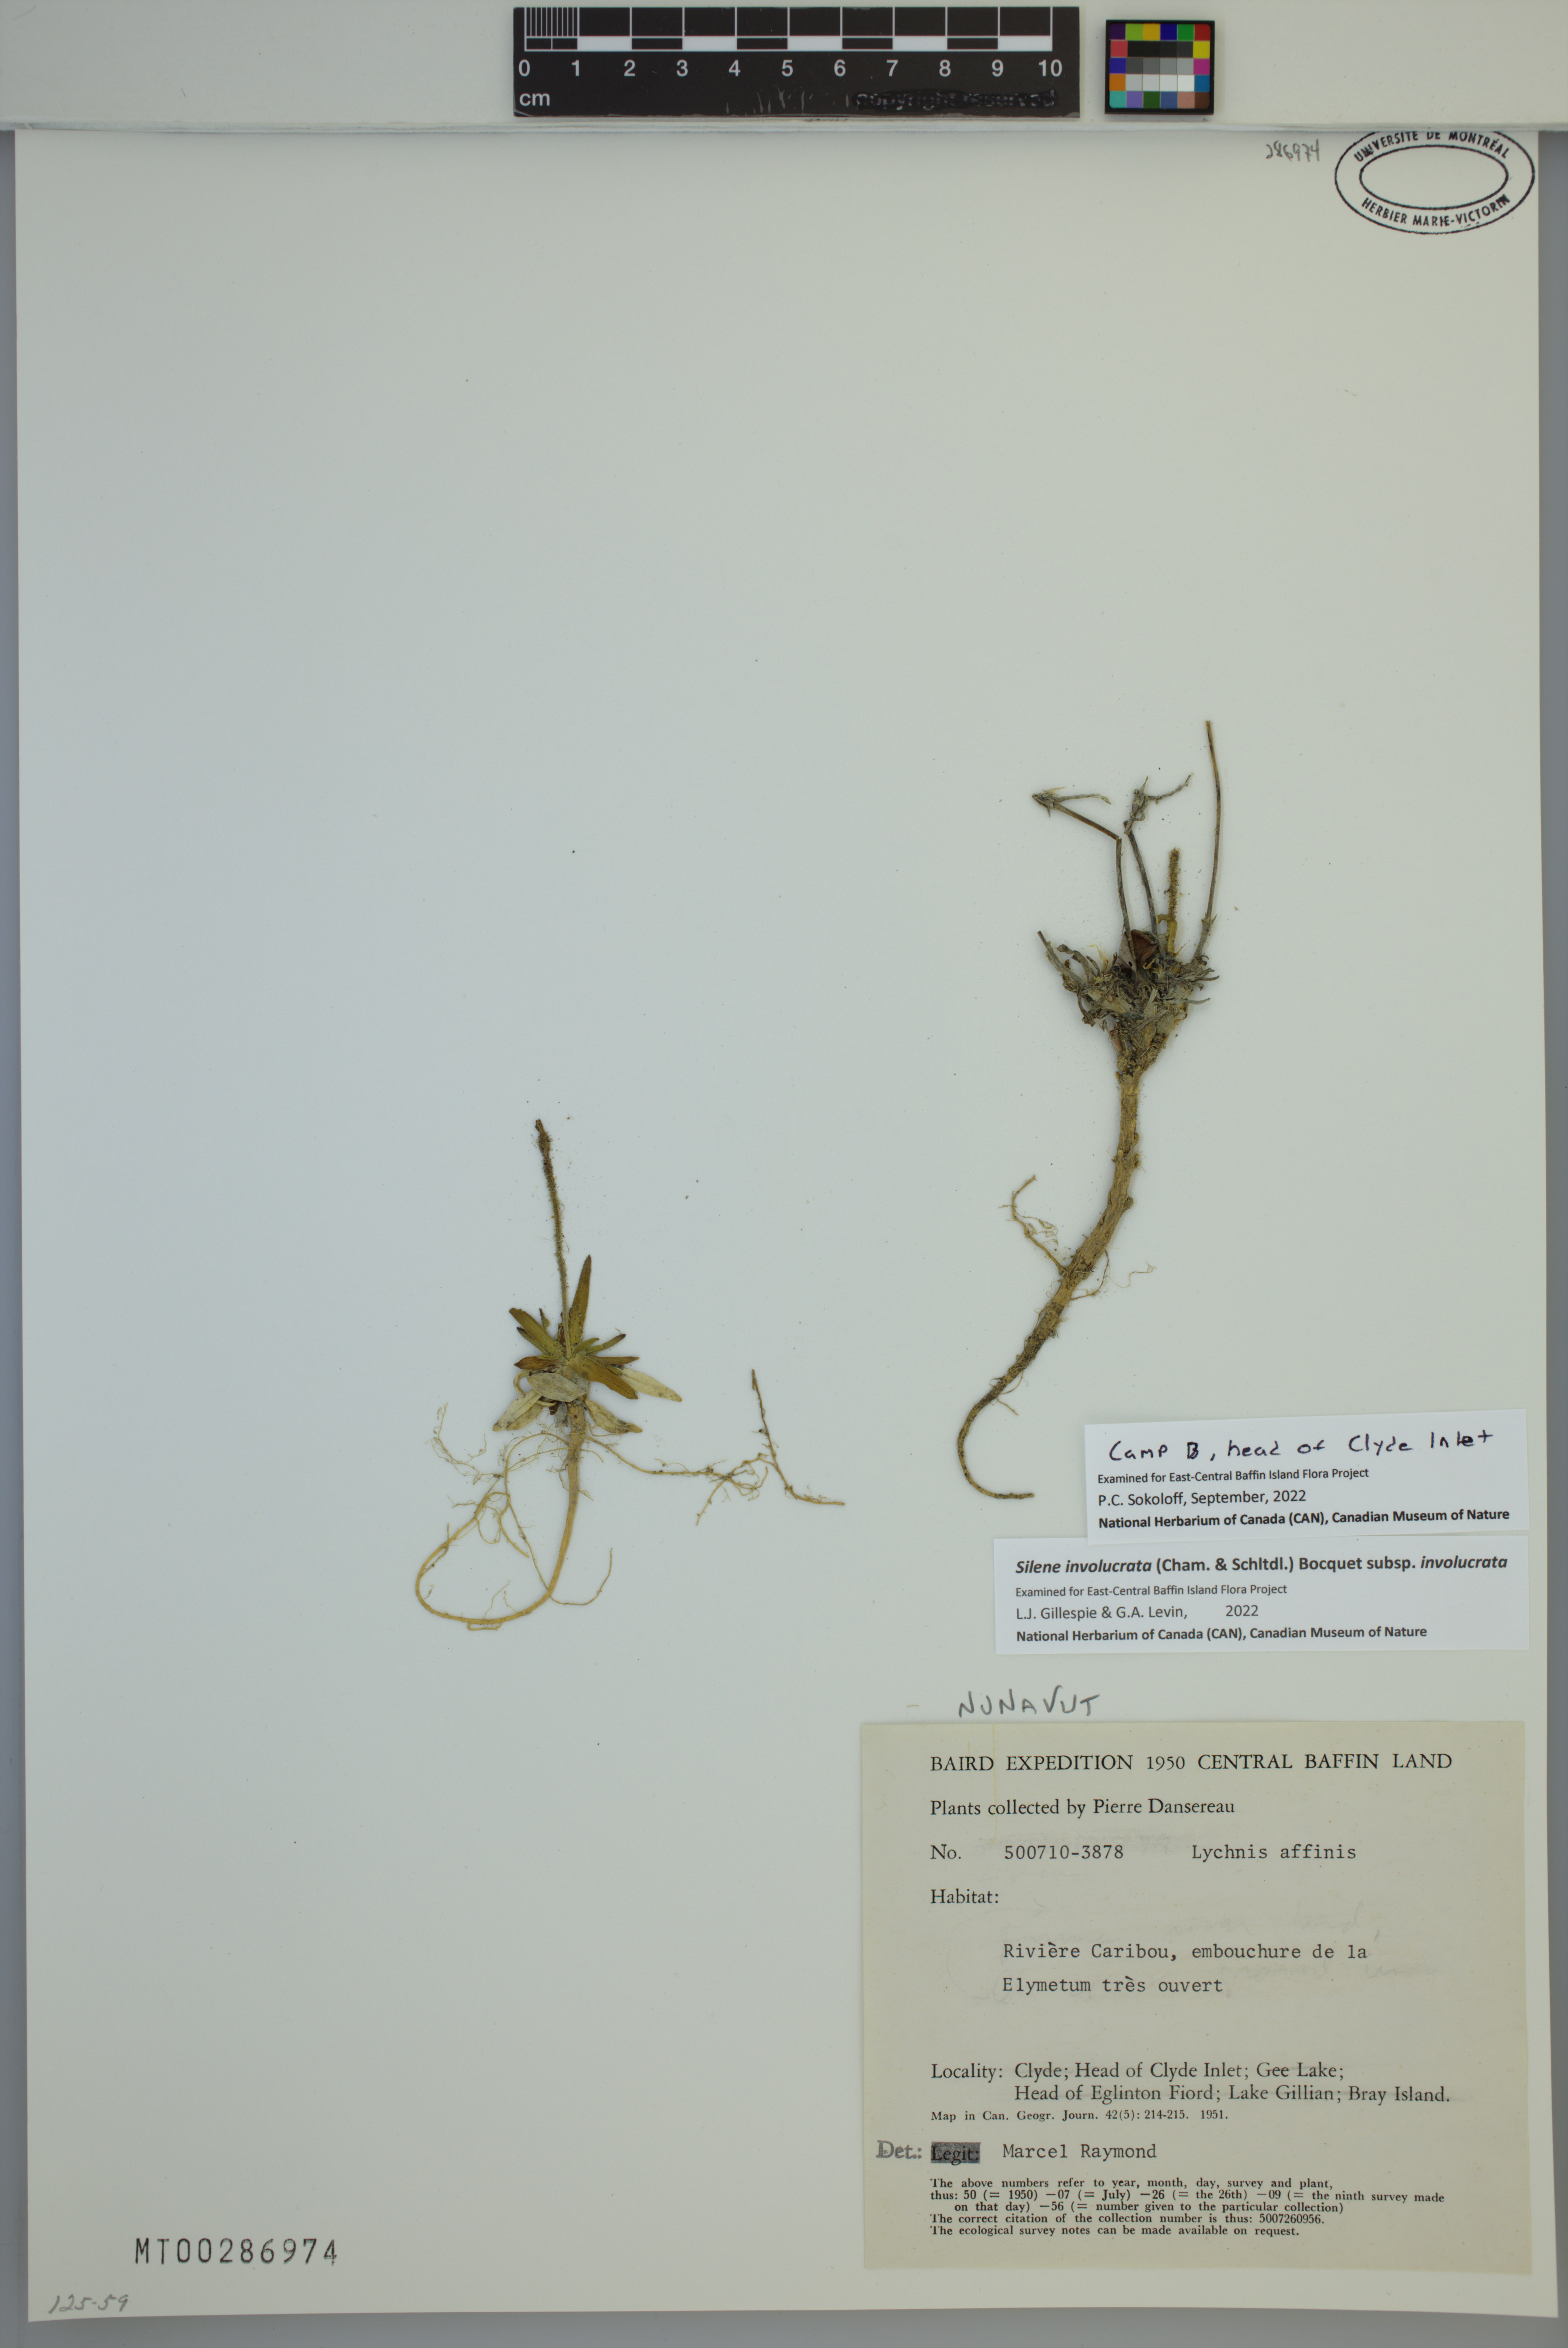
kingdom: Plantae
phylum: Tracheophyta
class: Magnoliopsida
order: Caryophyllales
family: Caryophyllaceae
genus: Silene
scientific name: Silene involucrata
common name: Greater arctic campion
